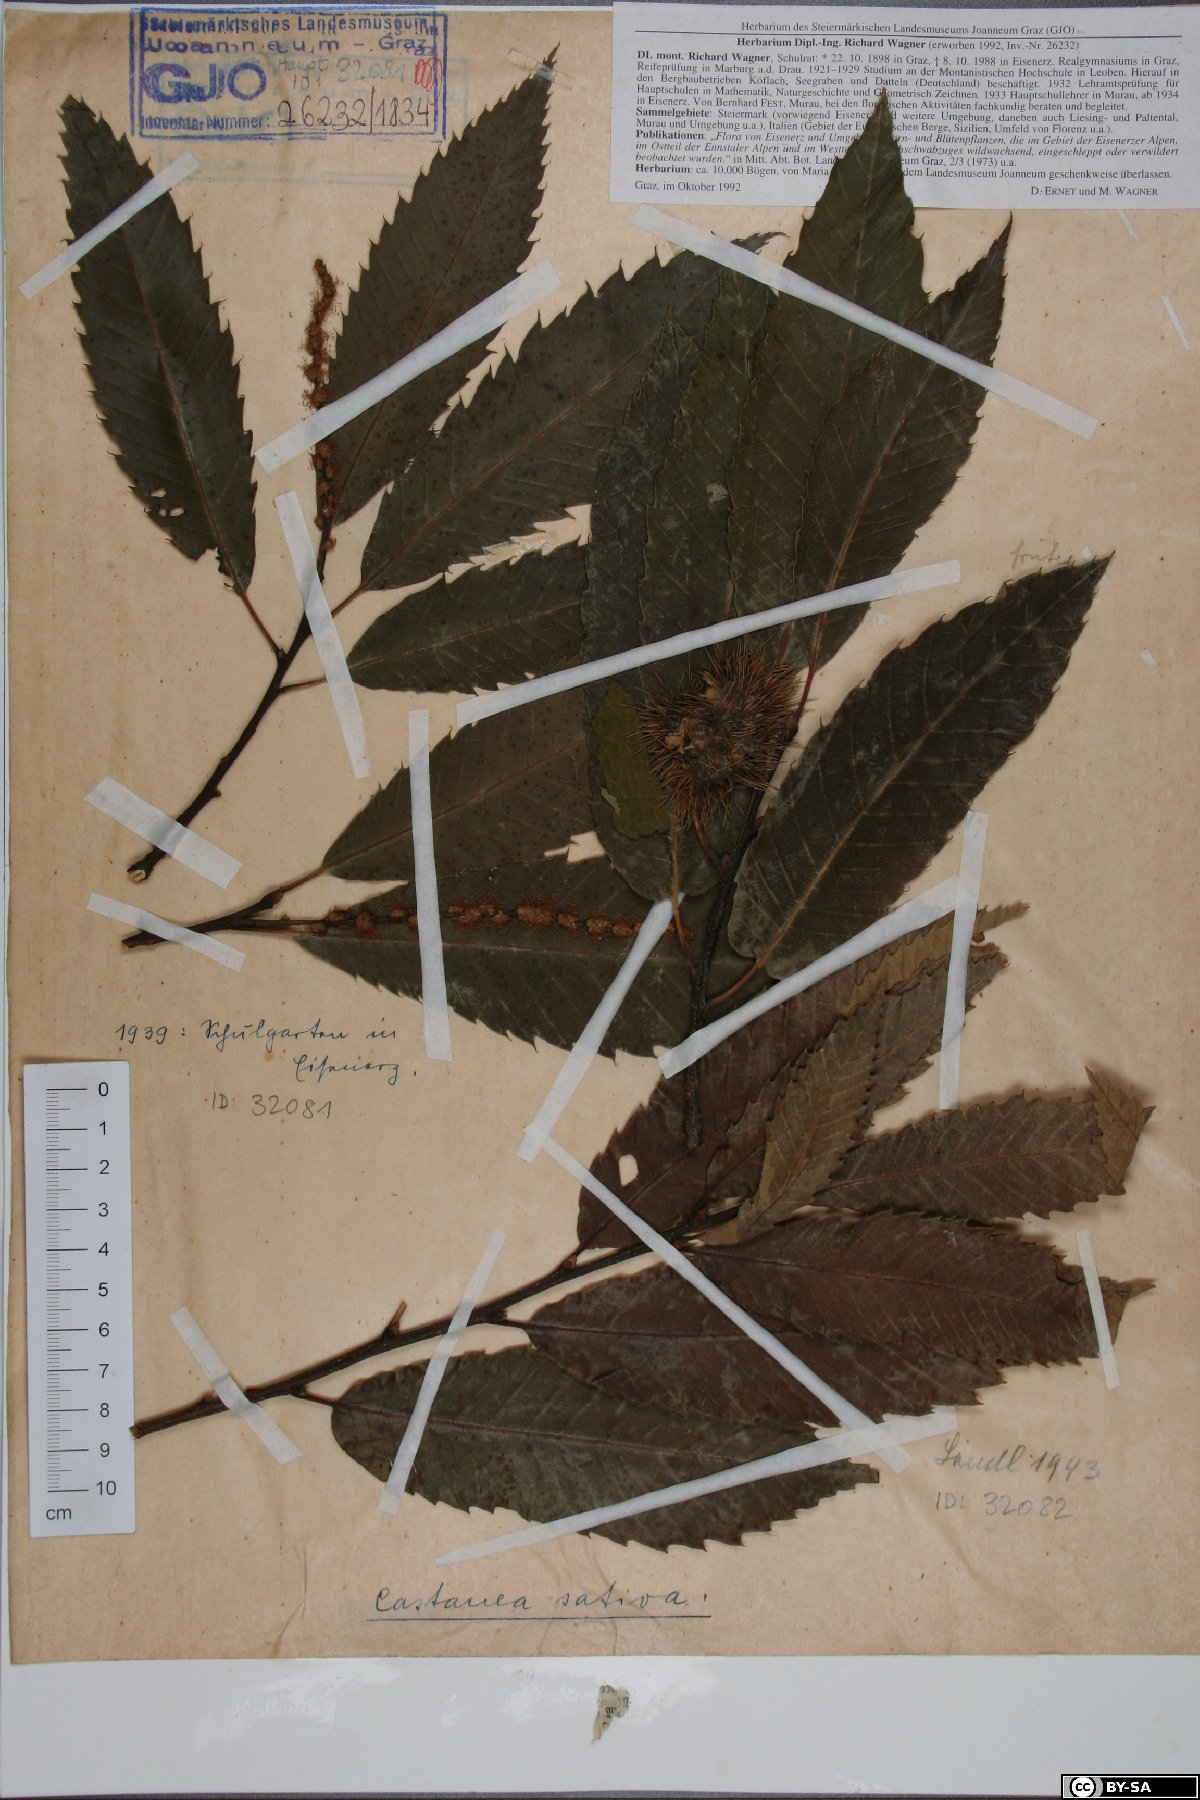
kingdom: Plantae
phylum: Tracheophyta
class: Magnoliopsida
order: Fagales
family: Fagaceae
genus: Castanea
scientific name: Castanea sativa
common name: Sweet chestnut
